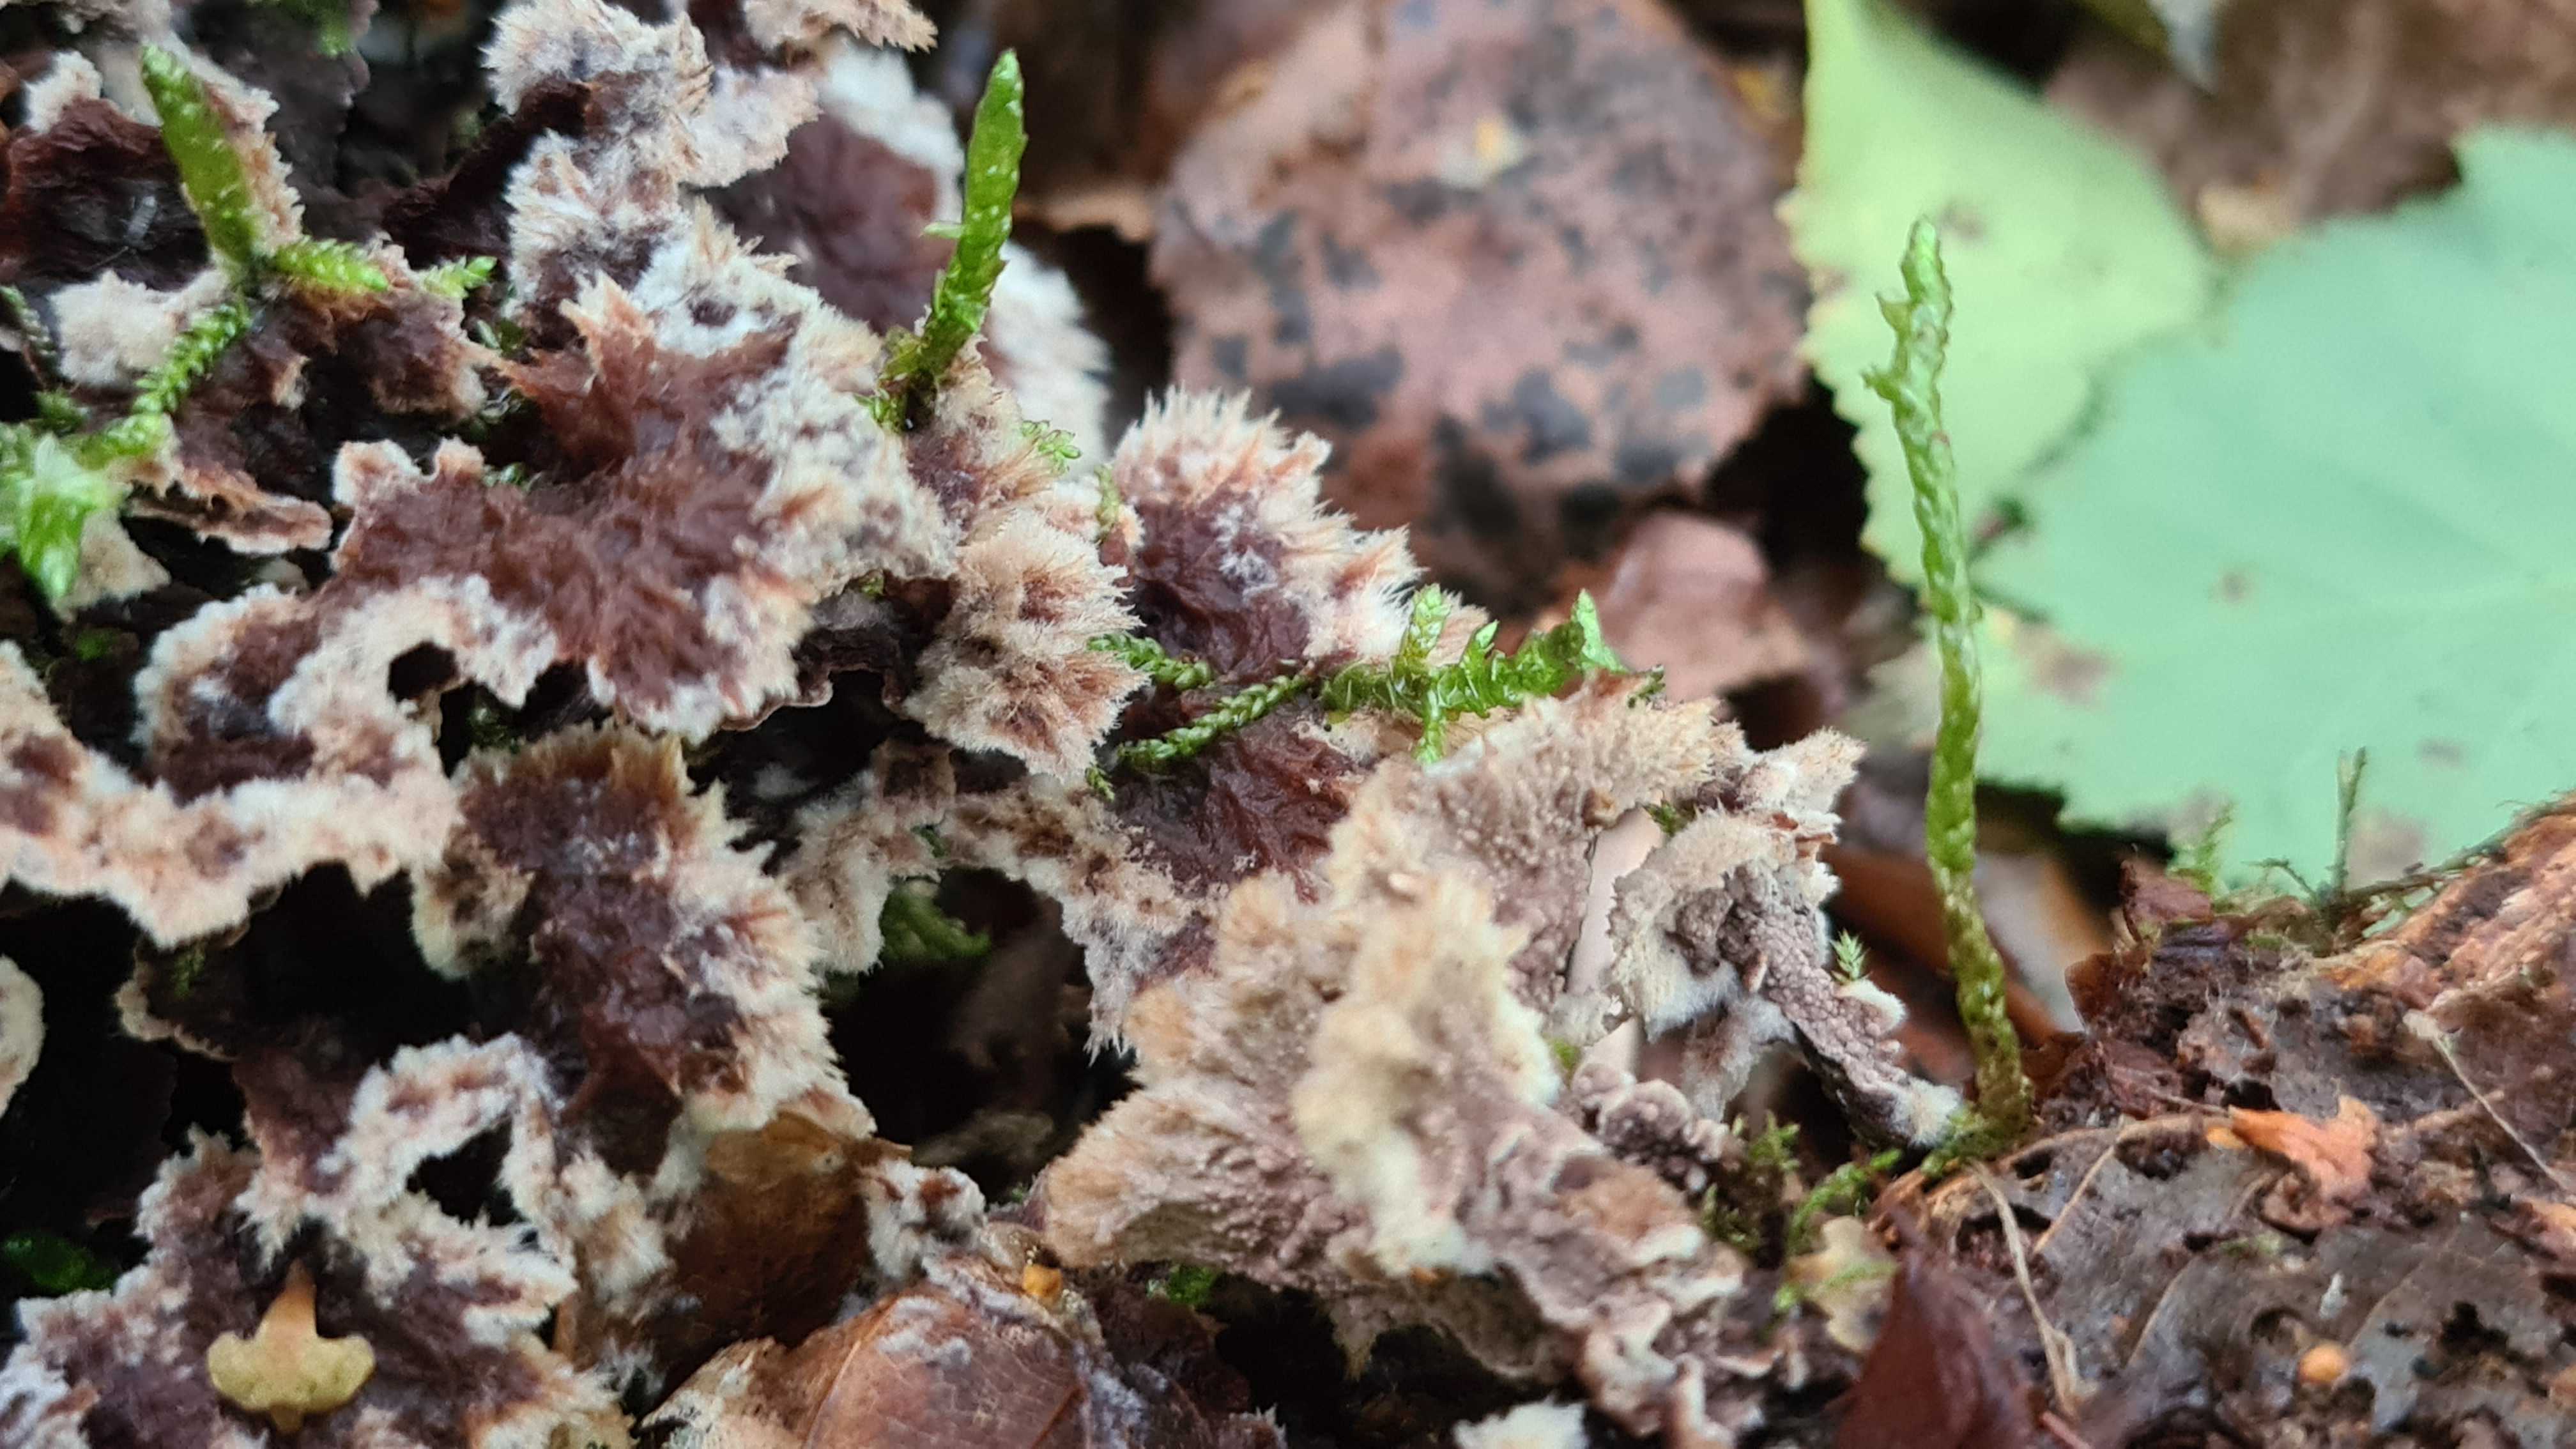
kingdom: Fungi
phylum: Basidiomycota
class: Agaricomycetes
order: Thelephorales
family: Thelephoraceae
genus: Thelephora
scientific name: Thelephora terrestris
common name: fliget frynsesvamp
